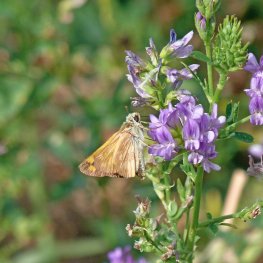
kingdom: Animalia
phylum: Arthropoda
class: Insecta
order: Lepidoptera
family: Hesperiidae
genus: Ochlodes
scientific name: Ochlodes sylvanoides
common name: Woodland Skipper
